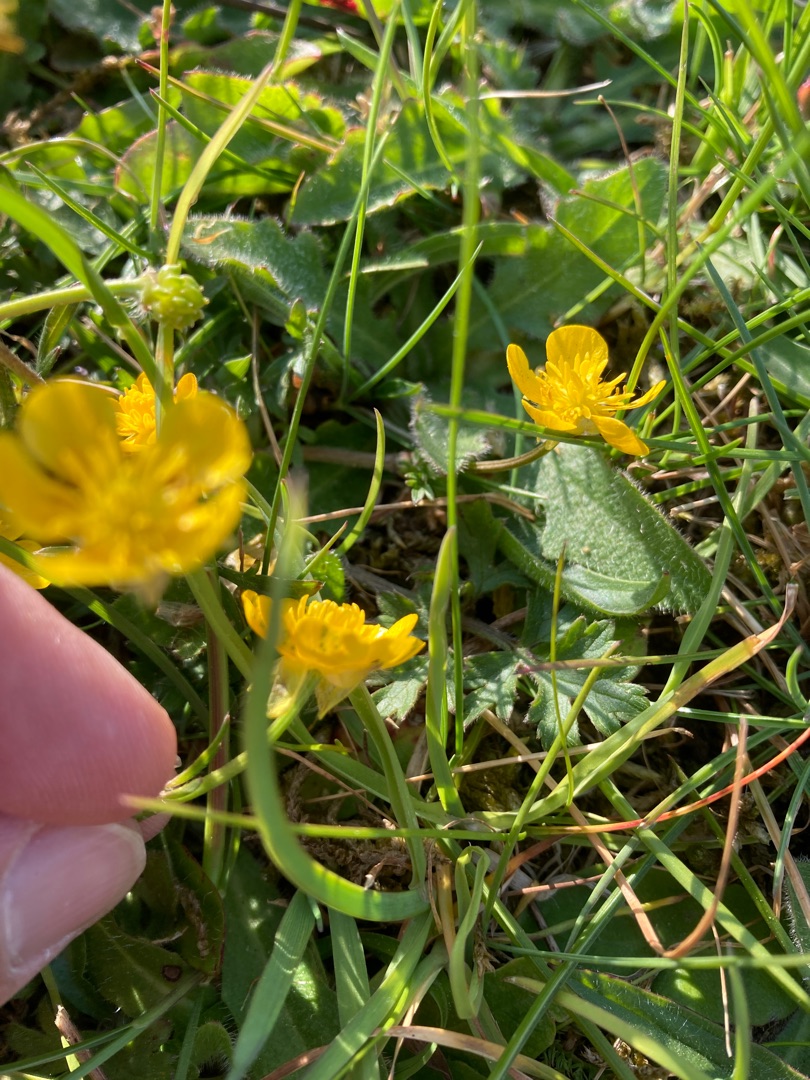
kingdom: Plantae
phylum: Tracheophyta
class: Magnoliopsida
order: Ranunculales
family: Ranunculaceae
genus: Ranunculus
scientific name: Ranunculus bulbosus
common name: Knold-ranunkel
